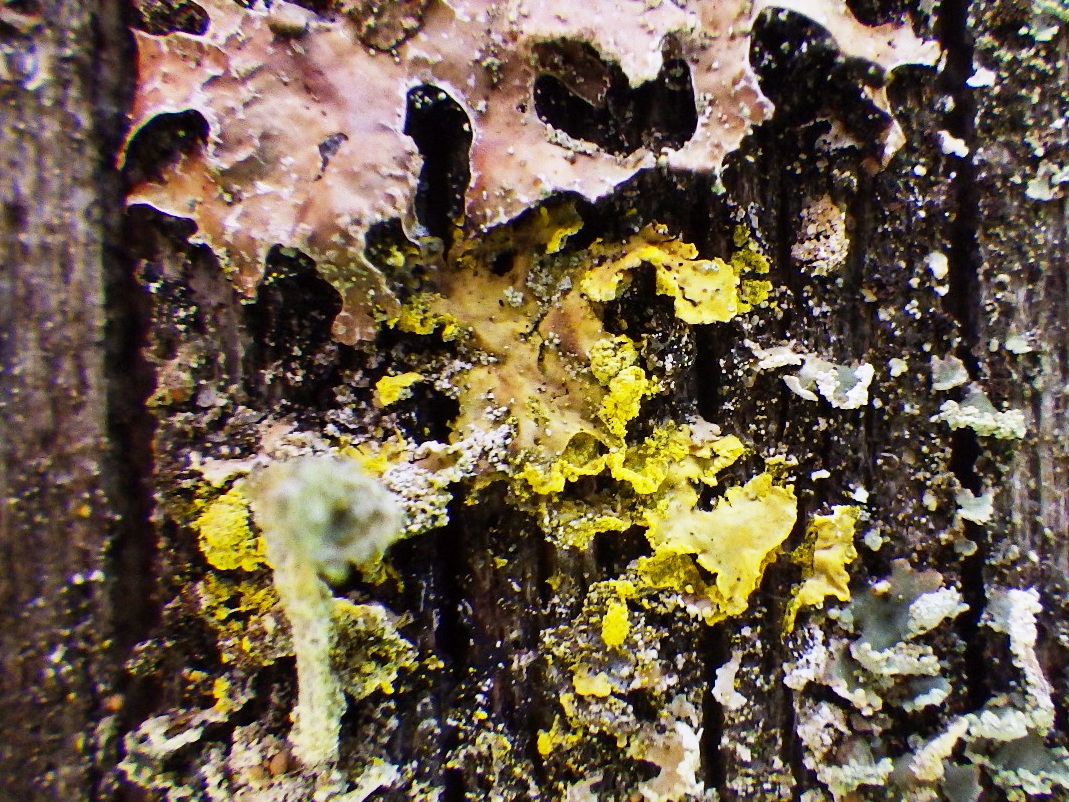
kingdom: Fungi
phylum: Ascomycota
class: Lecanoromycetes
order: Lecanorales
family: Parmeliaceae
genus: Vulpicida
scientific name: Vulpicida pinastri
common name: gul kruslav
